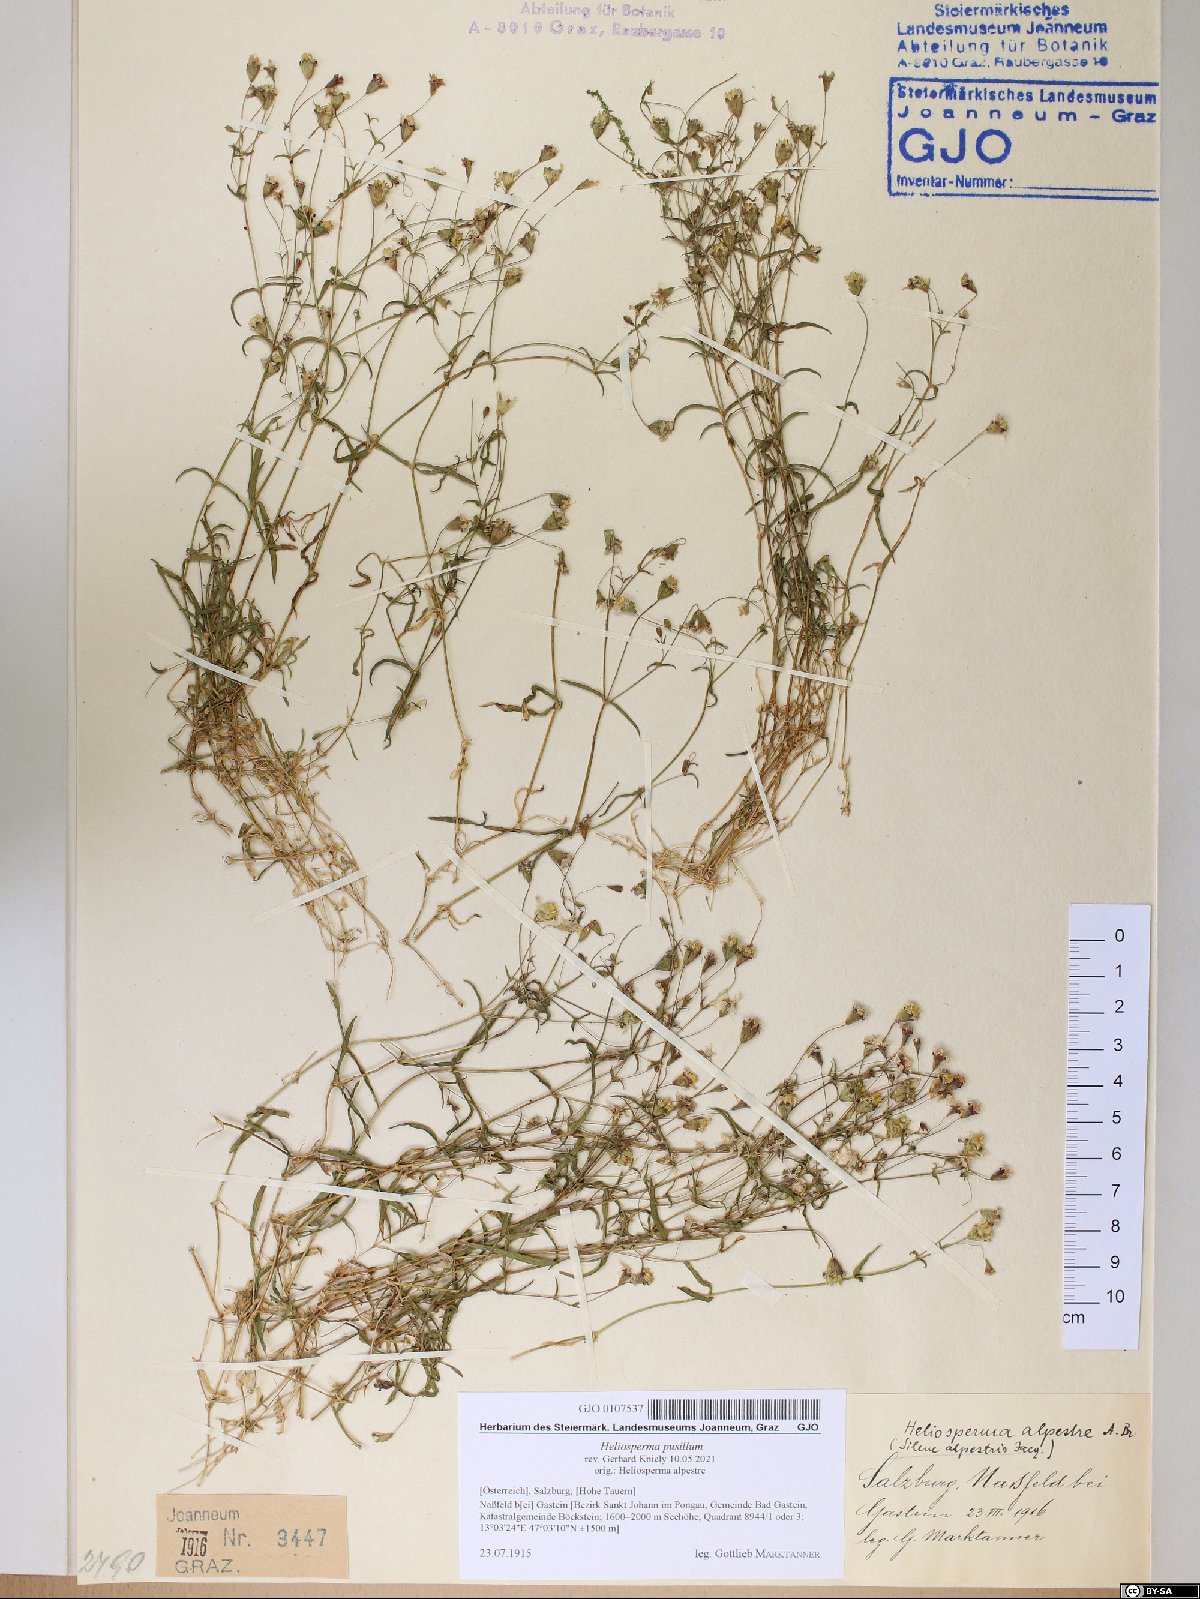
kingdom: Plantae
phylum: Tracheophyta
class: Magnoliopsida
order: Caryophyllales
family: Caryophyllaceae
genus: Heliosperma
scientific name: Heliosperma pusillum
